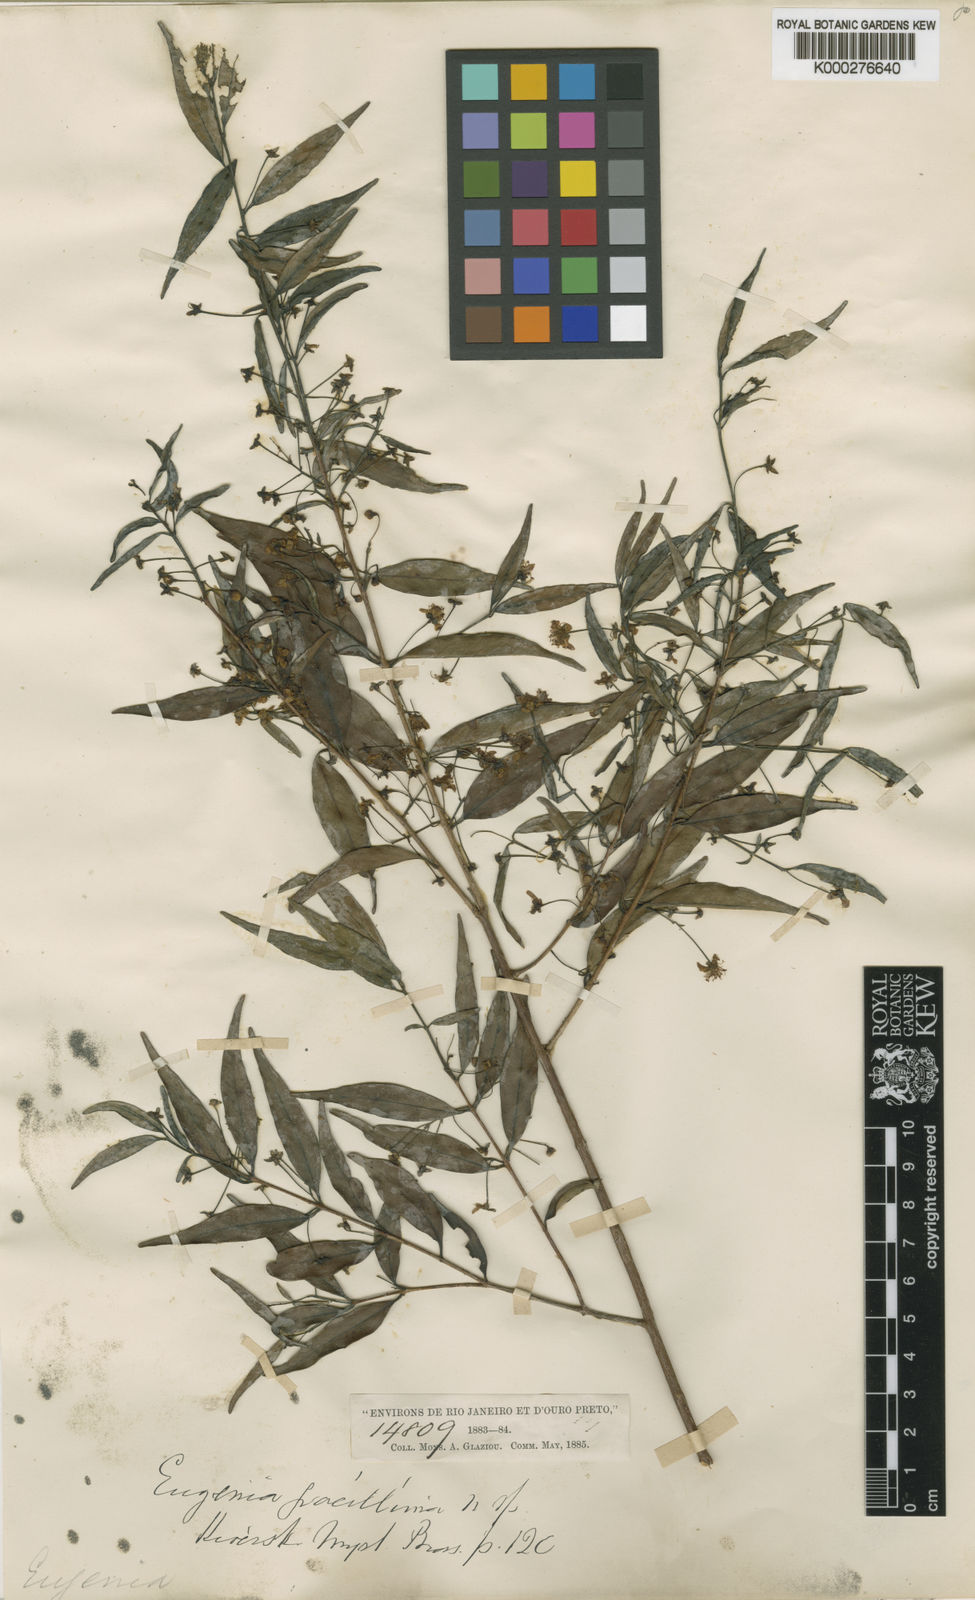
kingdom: Plantae
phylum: Tracheophyta
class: Magnoliopsida
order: Myrtales
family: Myrtaceae
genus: Eugenia
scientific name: Eugenia gracillima
